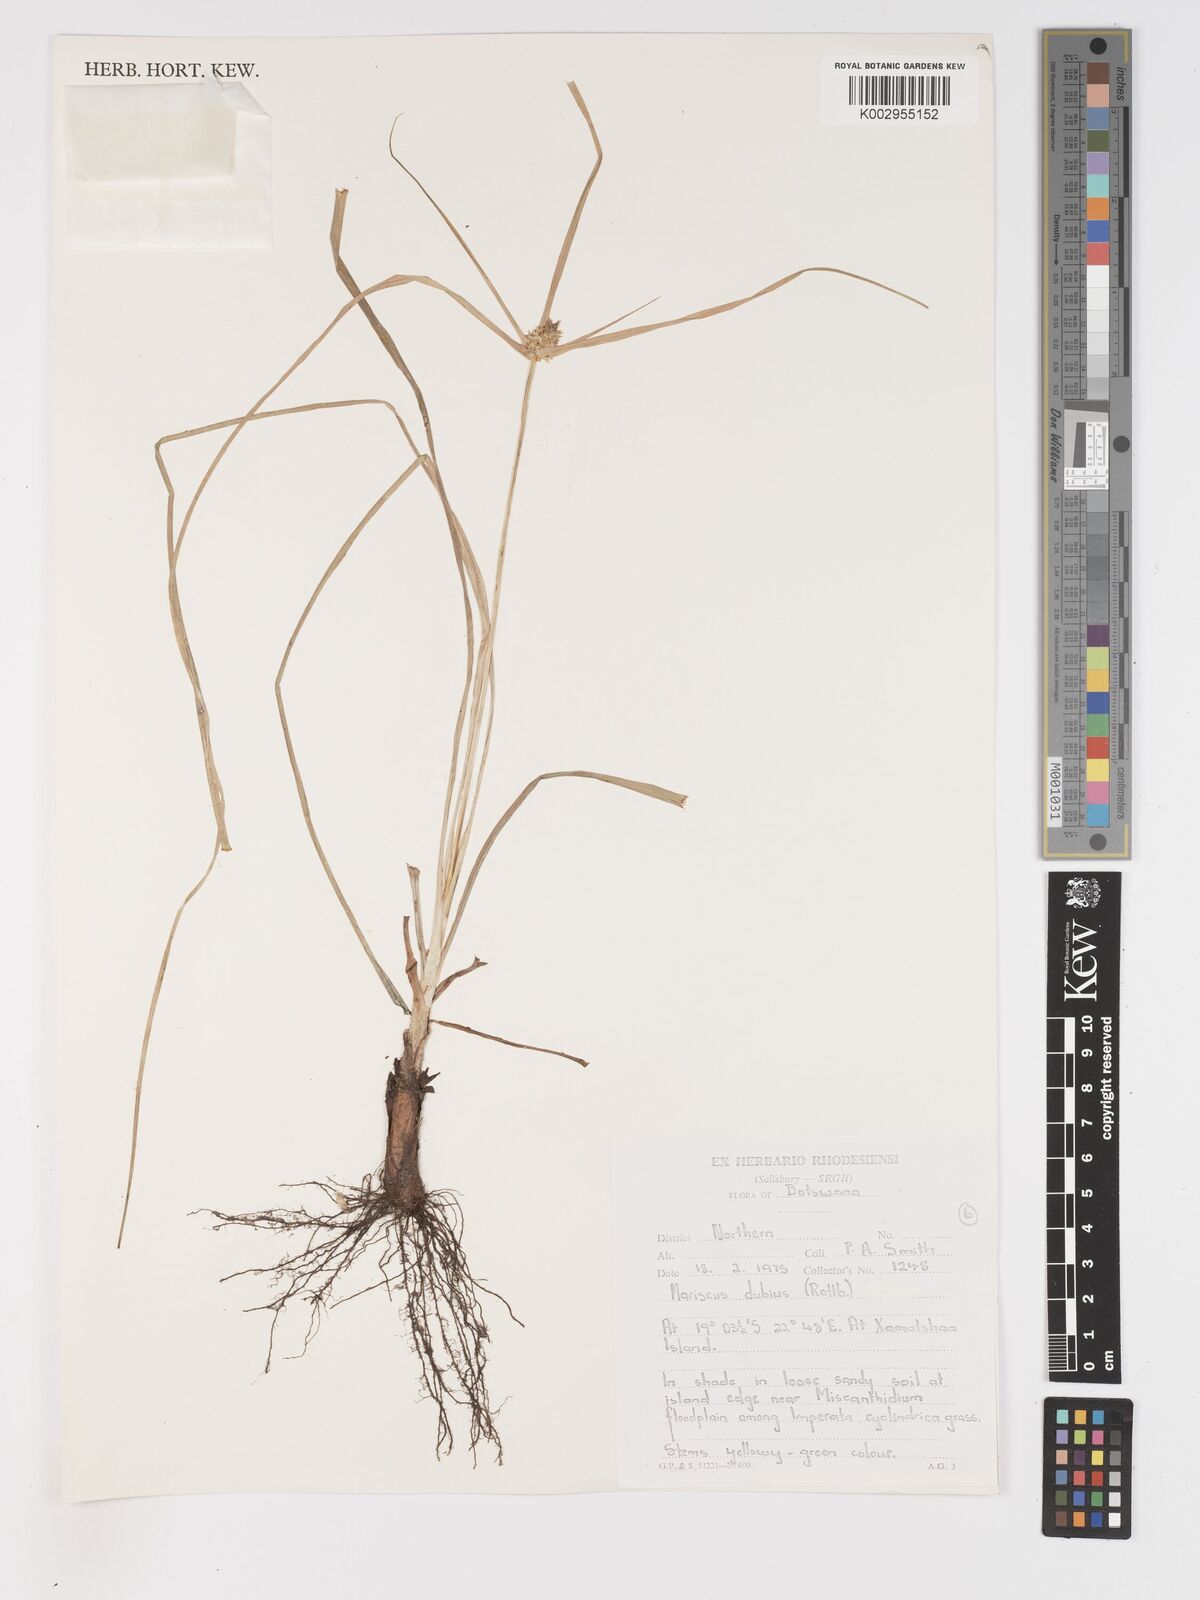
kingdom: Plantae
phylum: Tracheophyta
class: Liliopsida
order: Poales
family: Cyperaceae
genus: Cyperus
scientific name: Cyperus dubius
